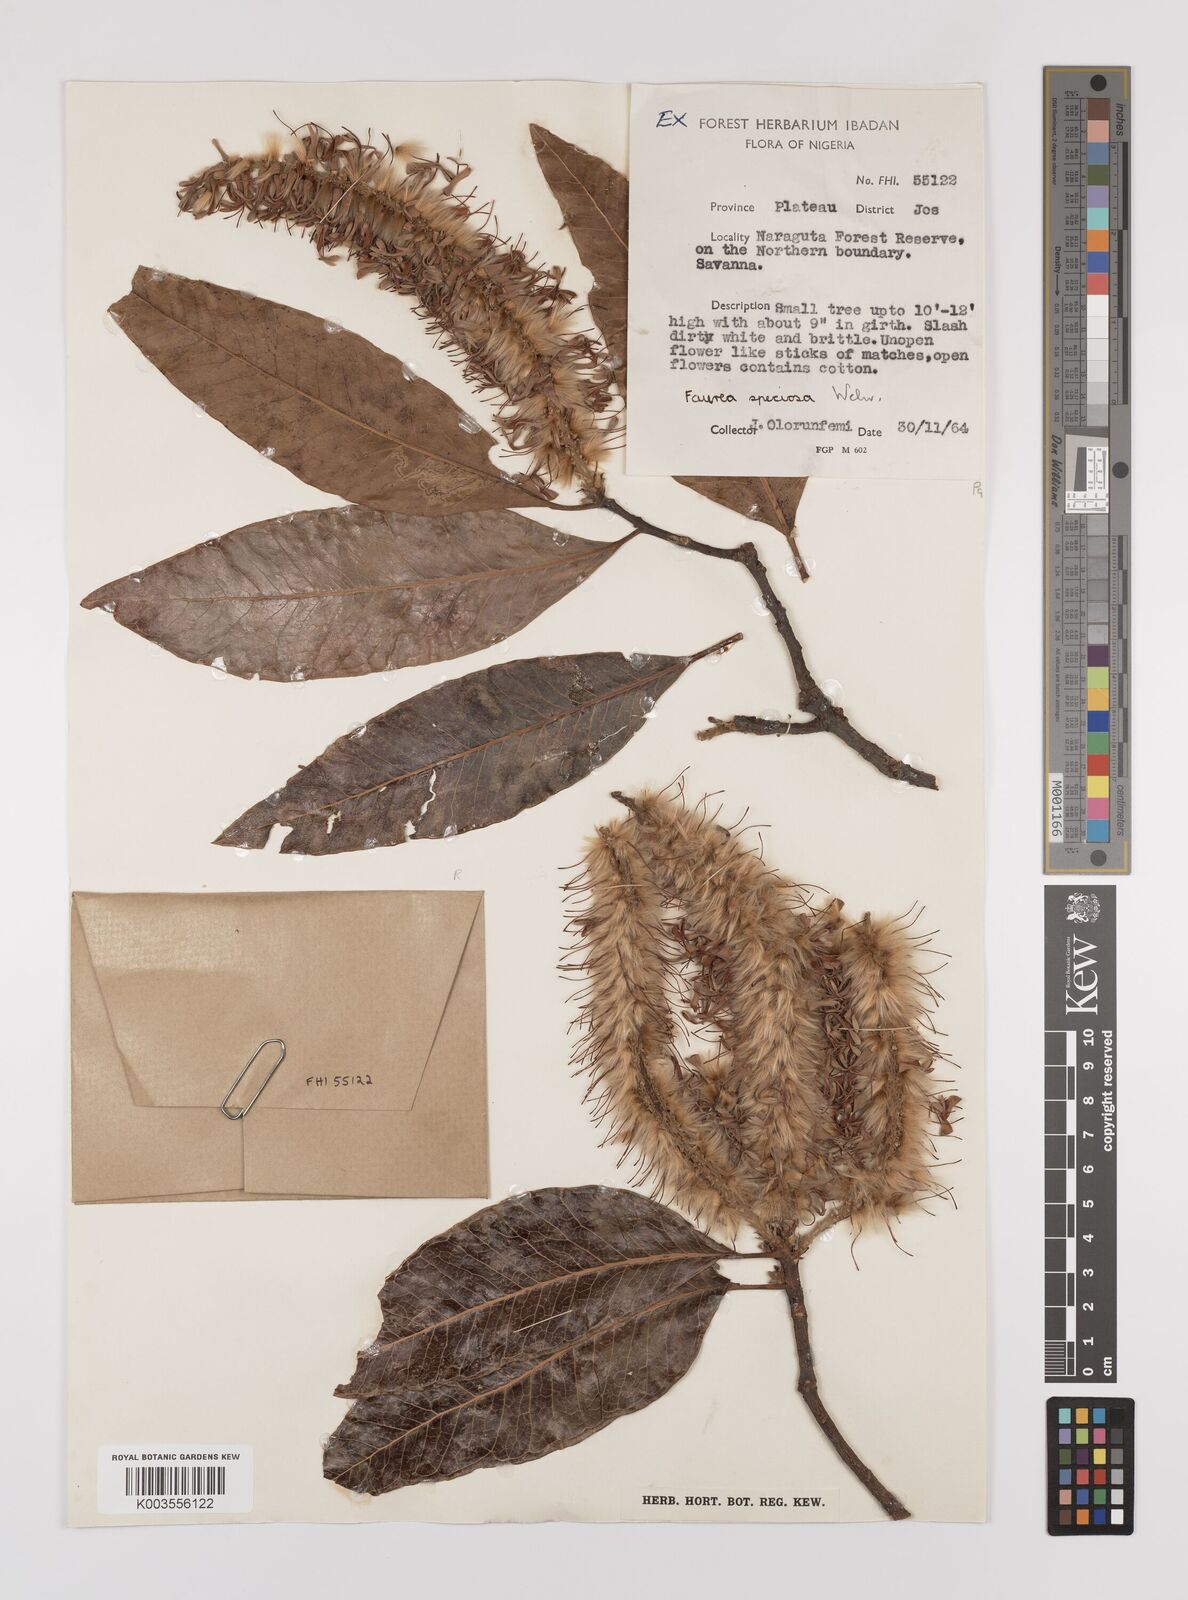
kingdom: Plantae
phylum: Tracheophyta
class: Magnoliopsida
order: Proteales
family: Proteaceae
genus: Faurea
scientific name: Faurea rochetiana
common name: Broad-leaved beech
